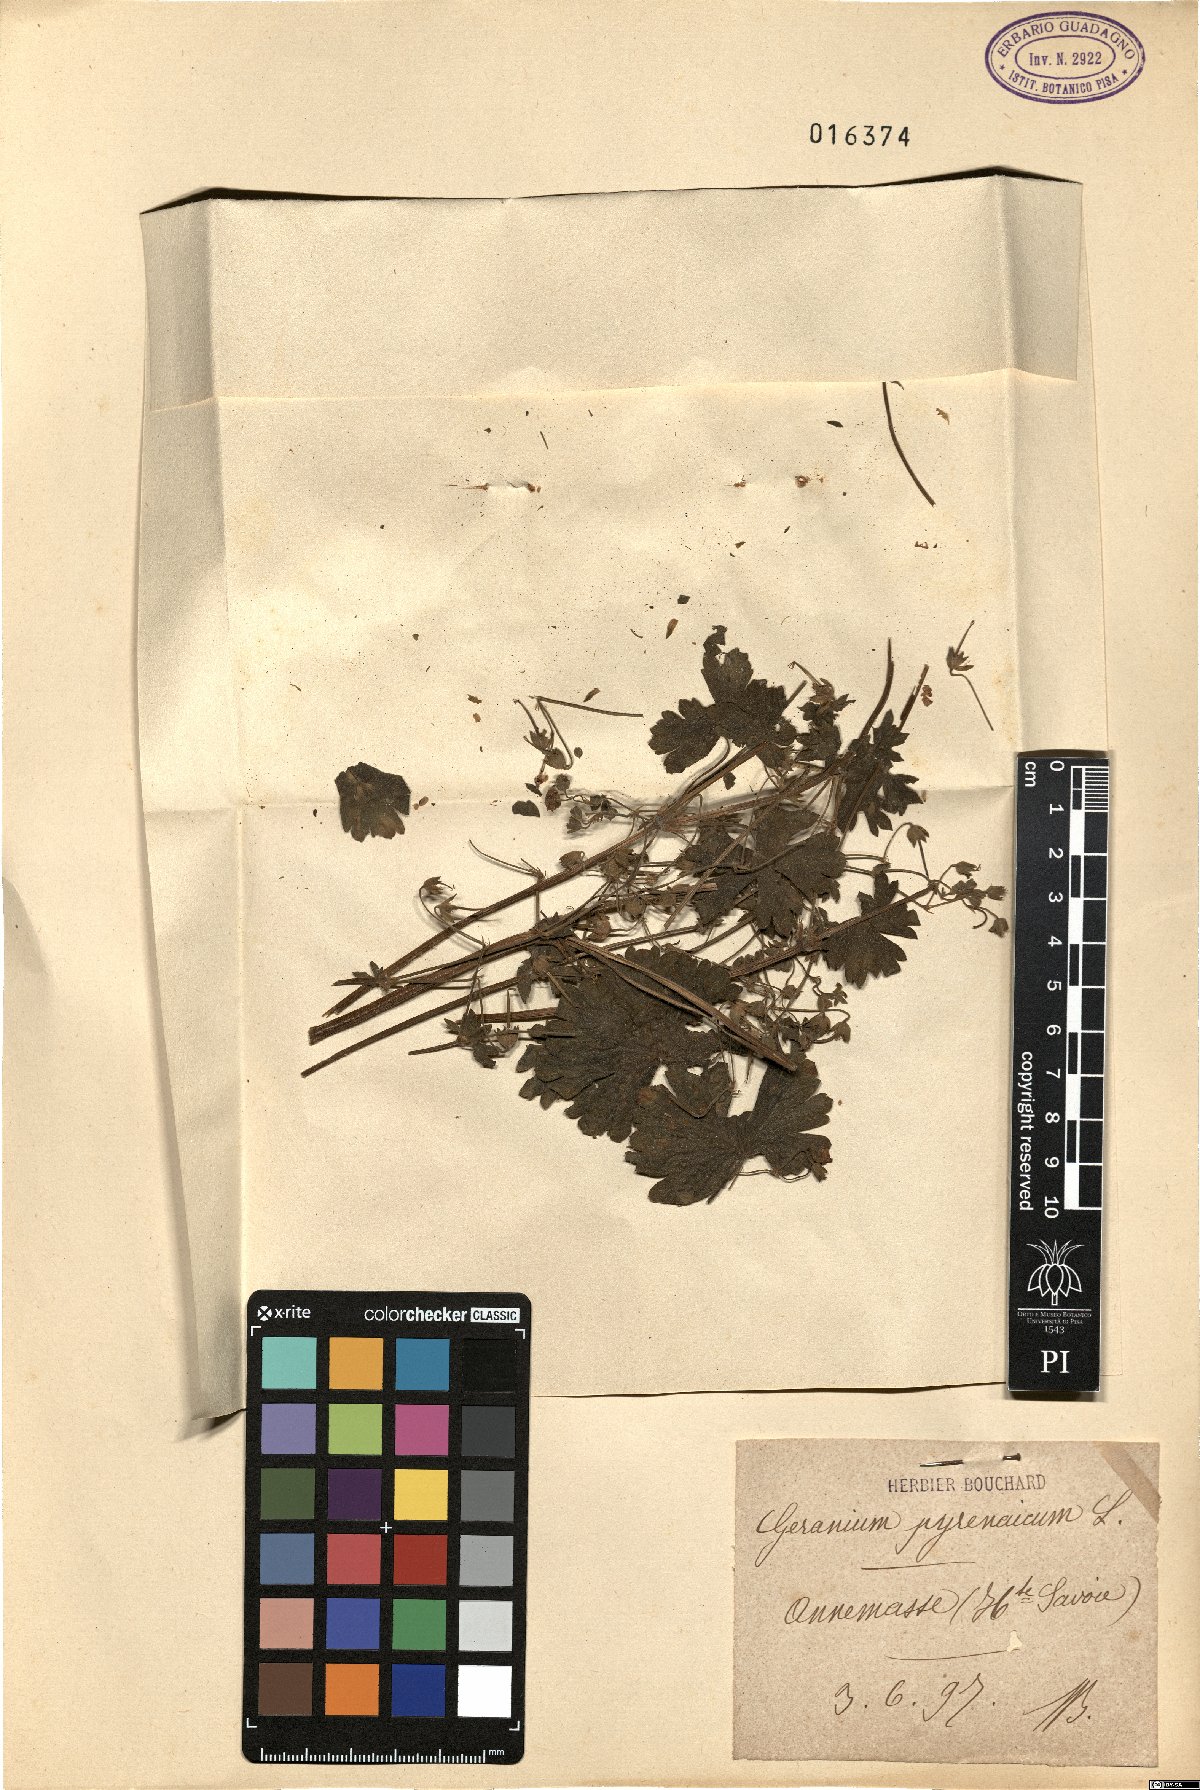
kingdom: Plantae
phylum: Tracheophyta
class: Magnoliopsida
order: Geraniales
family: Geraniaceae
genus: Geranium
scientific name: Geranium pyrenaicum
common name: Hedgerow crane's-bill
